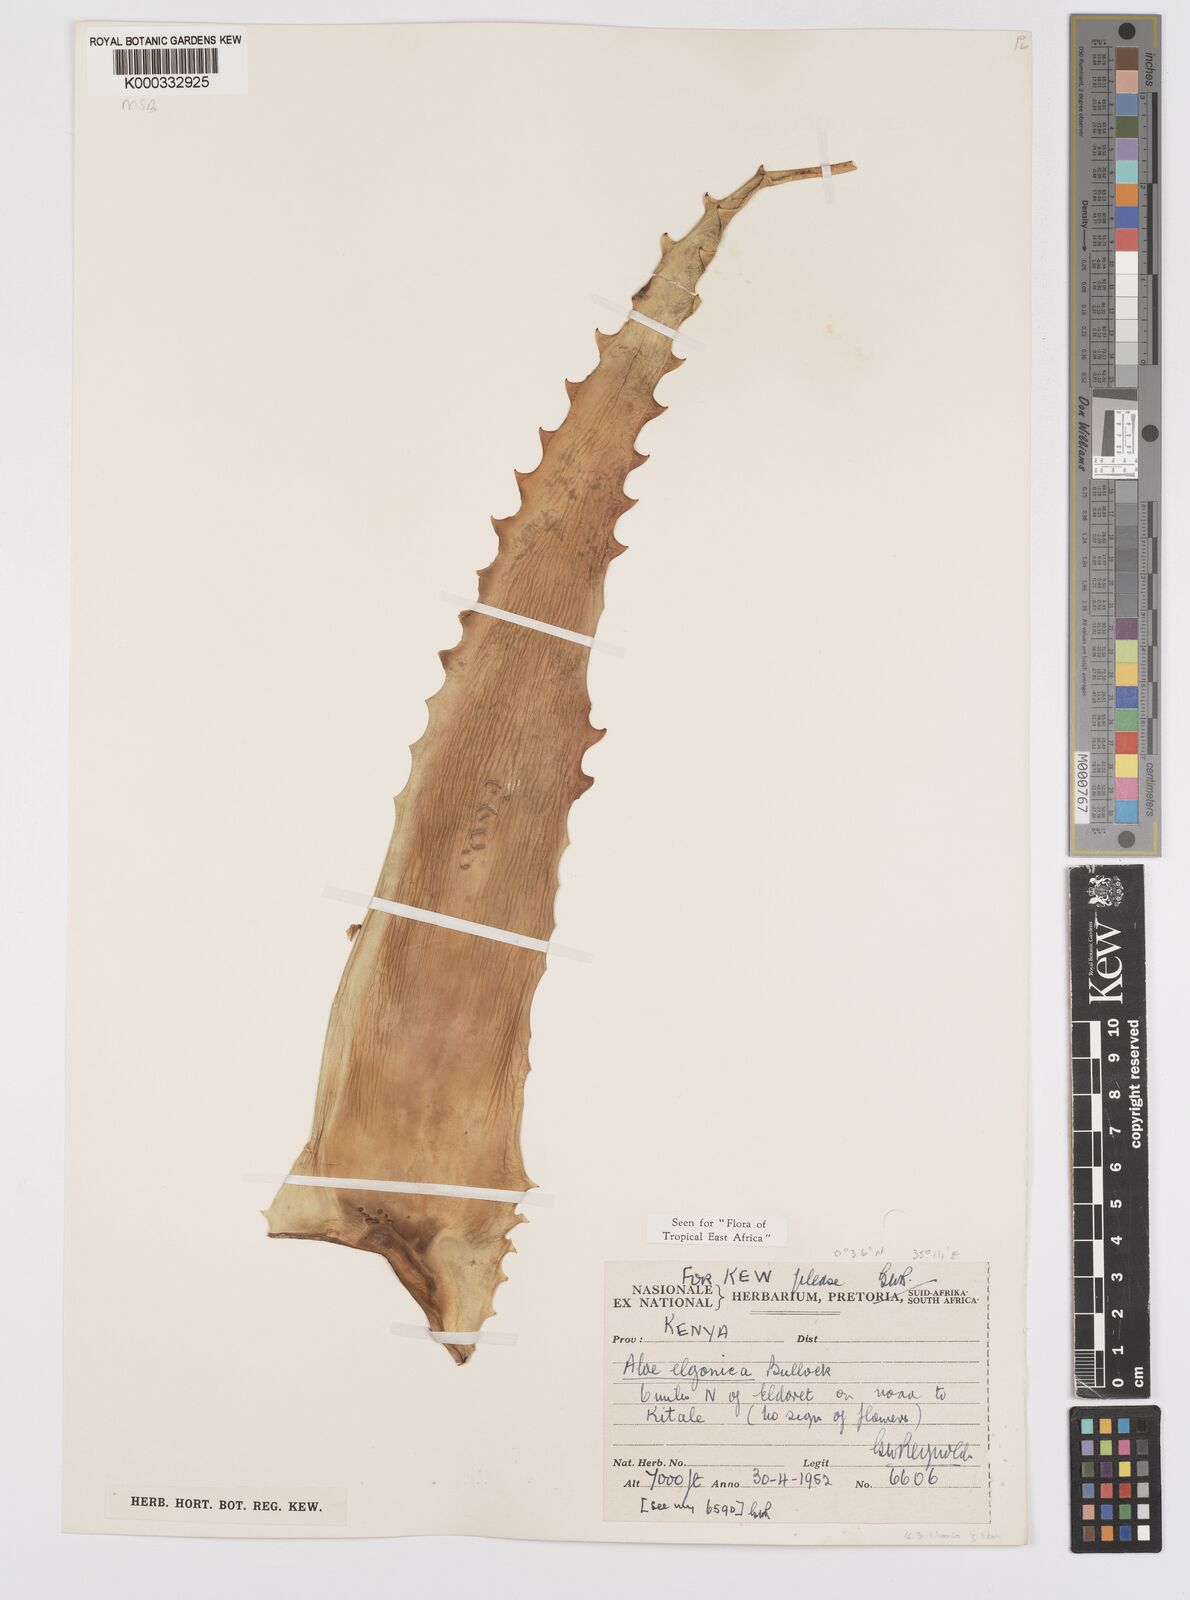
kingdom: Plantae
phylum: Tracheophyta
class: Liliopsida
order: Asparagales
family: Asphodelaceae
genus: Aloe
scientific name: Aloe elgonica
